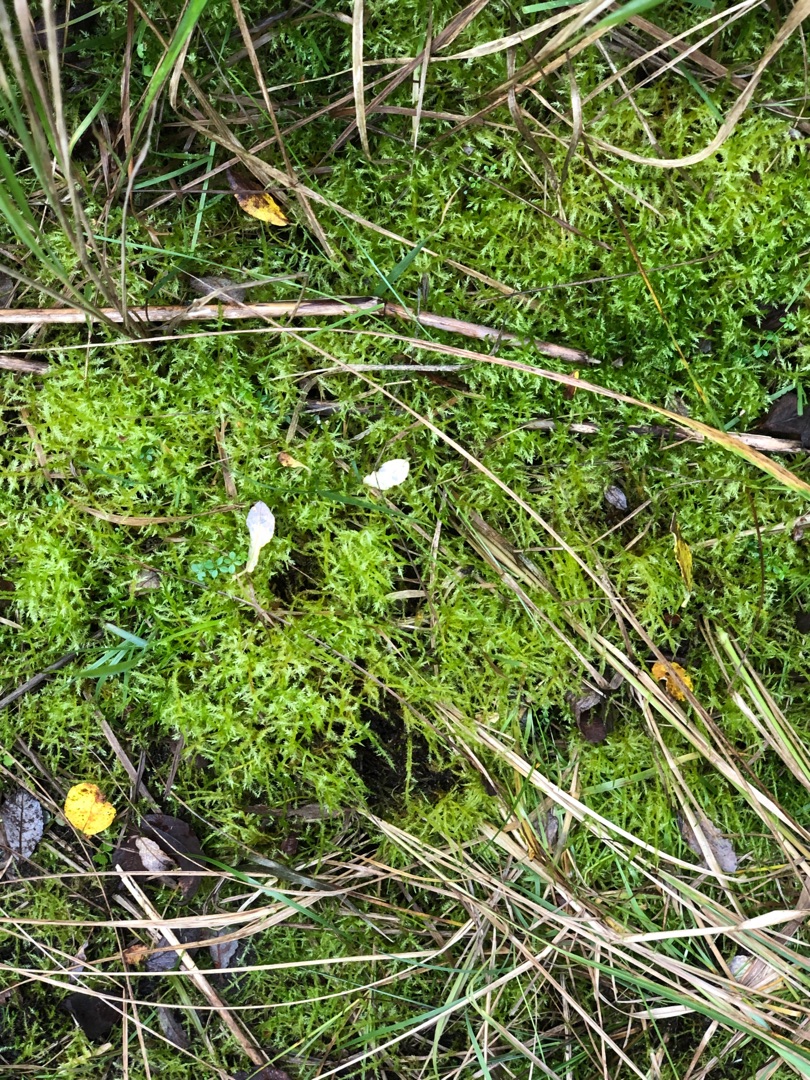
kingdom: Plantae
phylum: Bryophyta
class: Bryopsida
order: Hypnales
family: Pylaisiaceae
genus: Calliergonella
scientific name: Calliergonella cuspidata
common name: Spids spydmos
